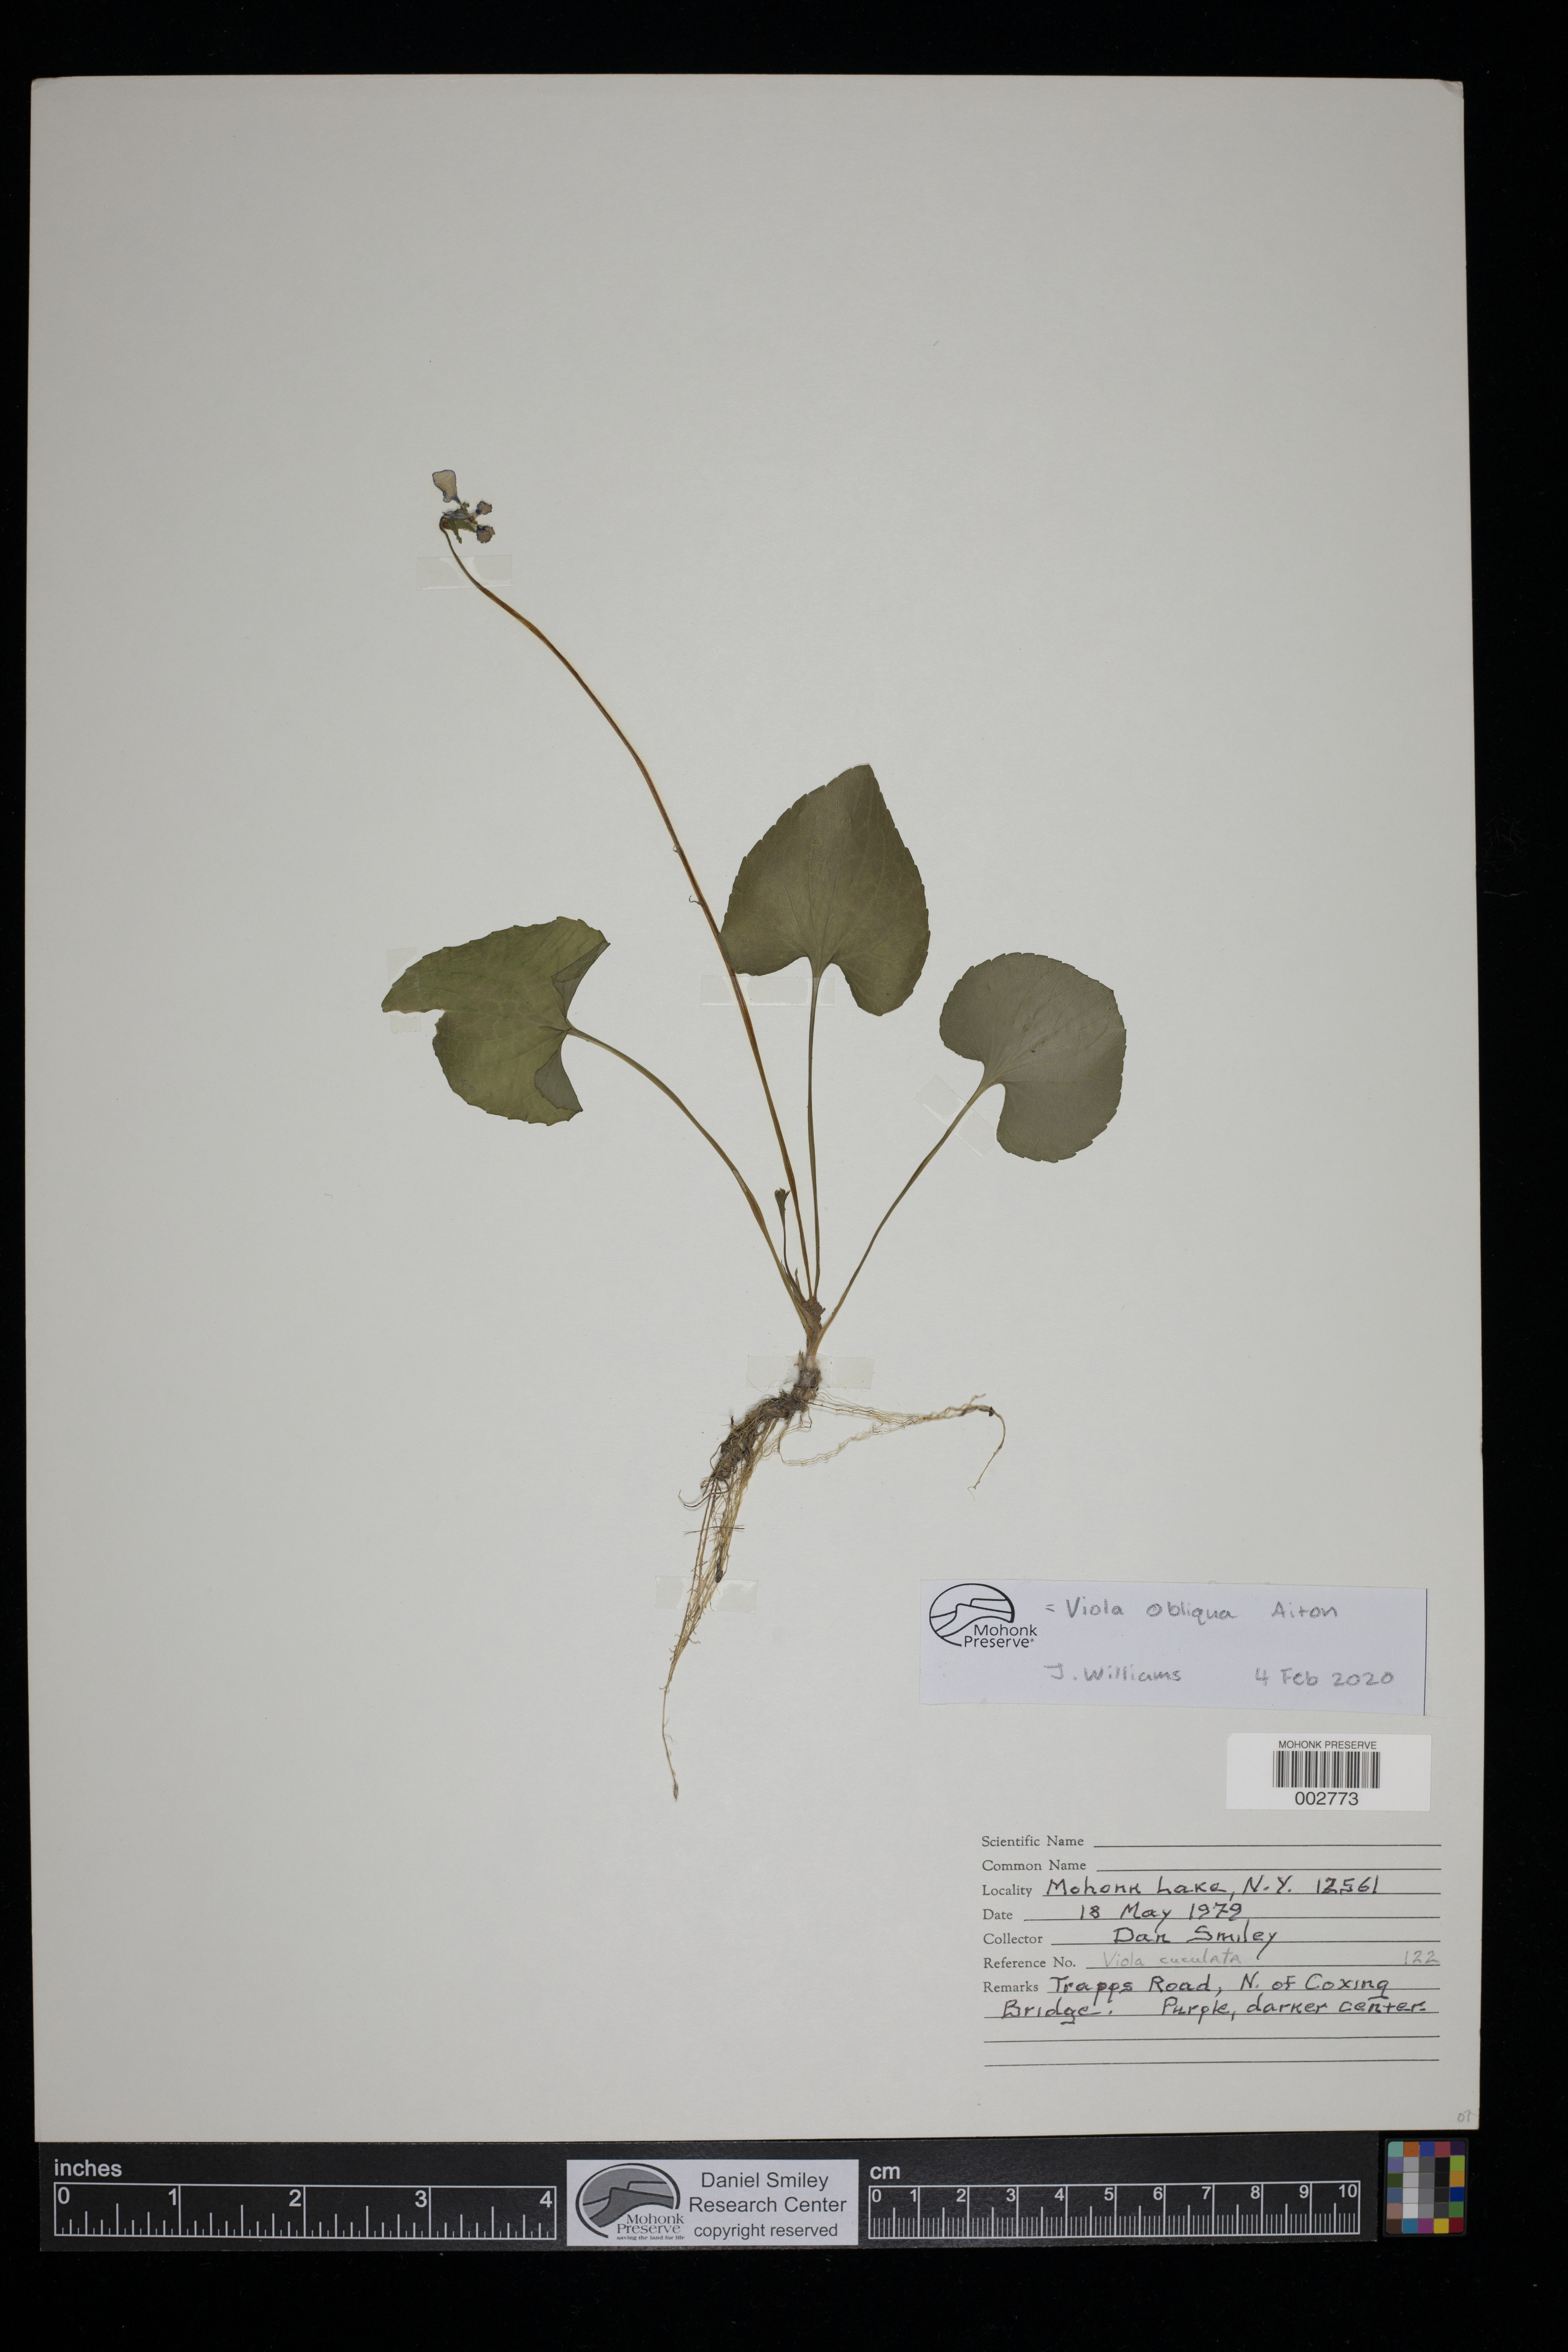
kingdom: Plantae
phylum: Tracheophyta
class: Magnoliopsida
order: Malpighiales
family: Violaceae
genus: Viola
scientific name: Viola cucullata
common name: Marsh blue violet
